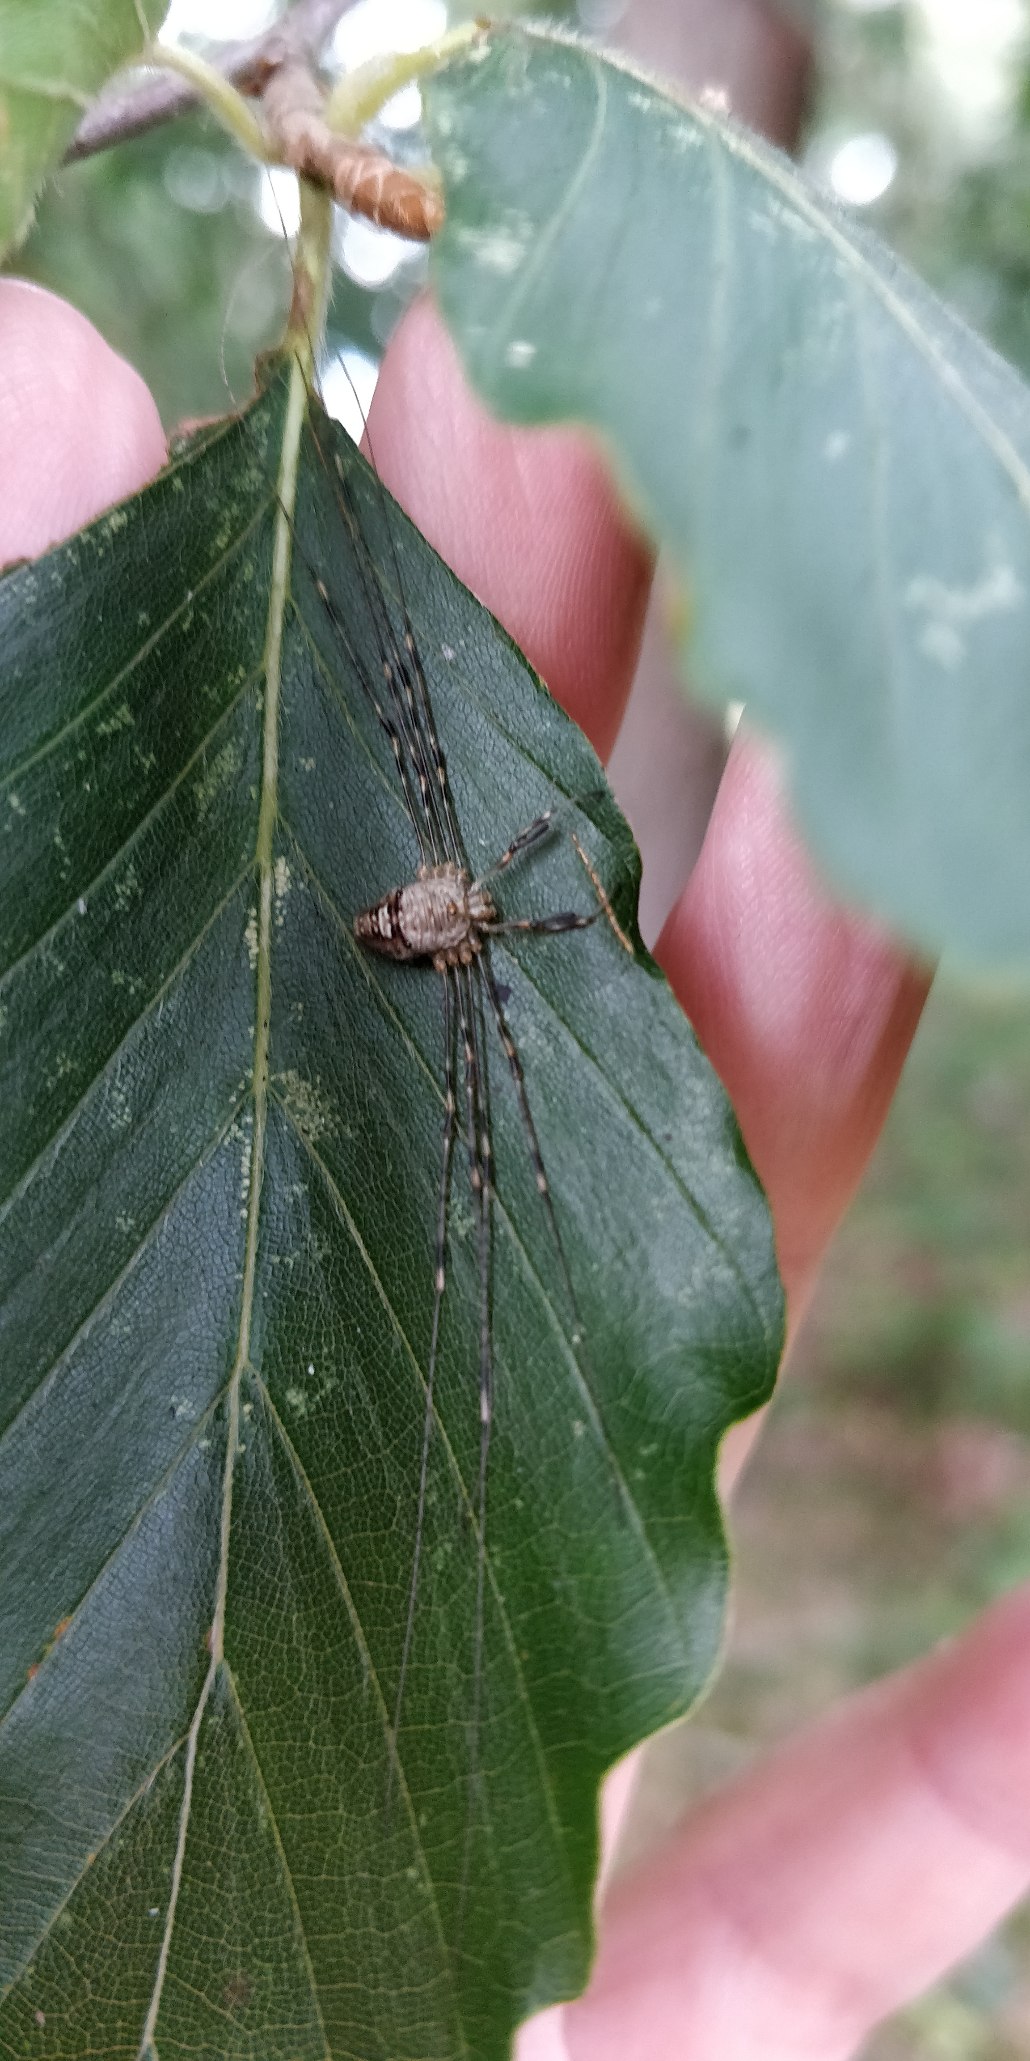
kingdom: Animalia
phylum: Arthropoda
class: Arachnida
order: Opiliones
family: Phalangiidae
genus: Dicranopalpus
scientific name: Dicranopalpus ramosus
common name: Gaffelmejer
